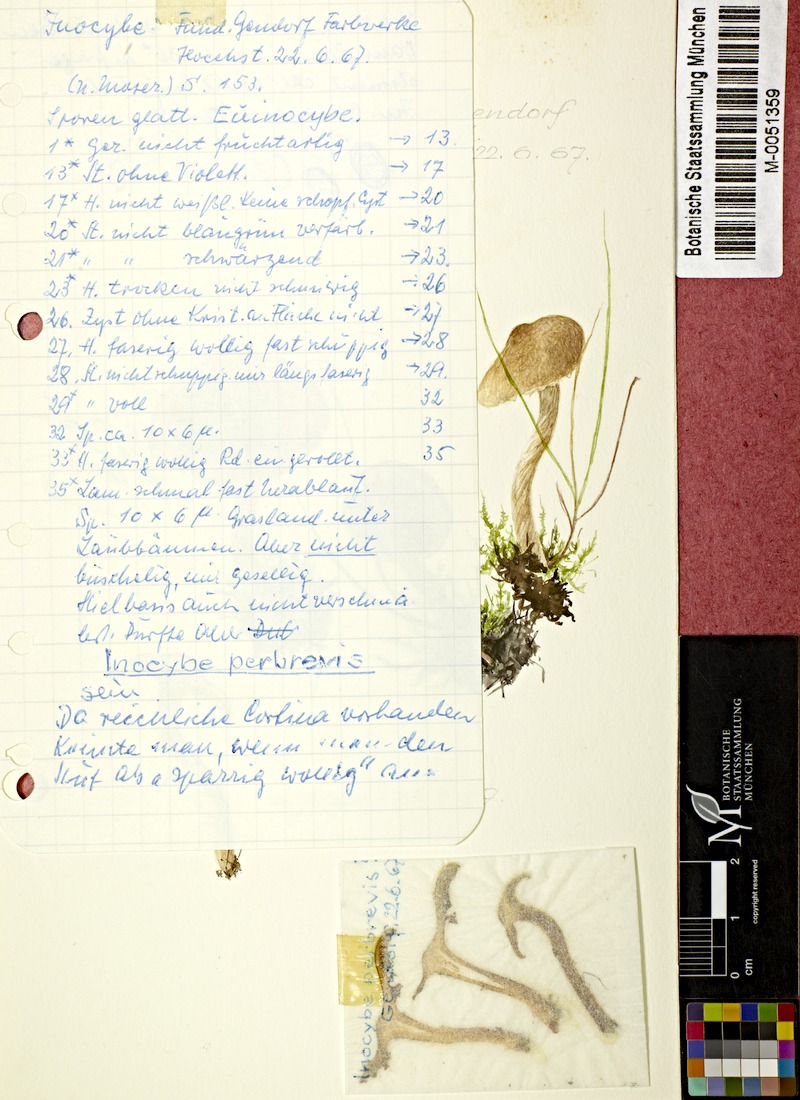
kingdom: Fungi
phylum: Basidiomycota
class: Agaricomycetes
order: Agaricales
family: Inocybaceae
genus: Mallocybe
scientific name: Mallocybe perbrevis
